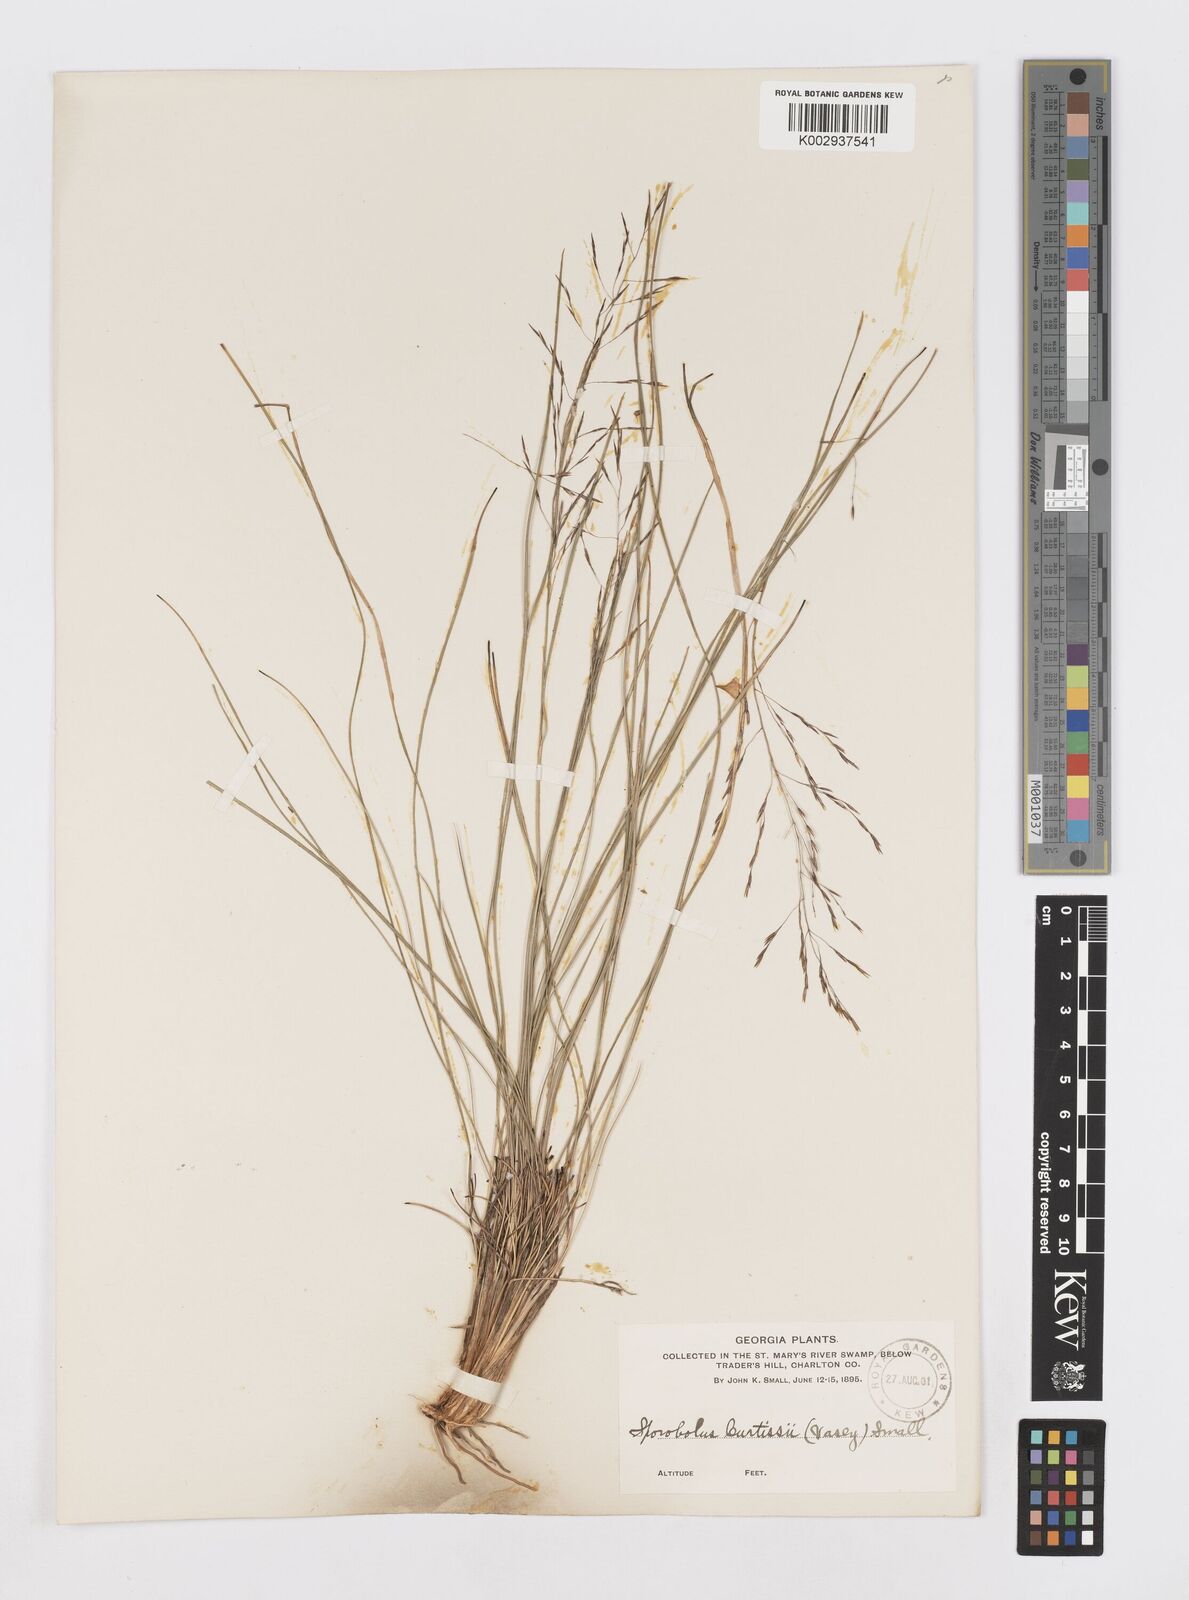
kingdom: Plantae
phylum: Tracheophyta
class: Liliopsida
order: Poales
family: Poaceae
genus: Sporobolus
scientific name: Sporobolus curtissii
